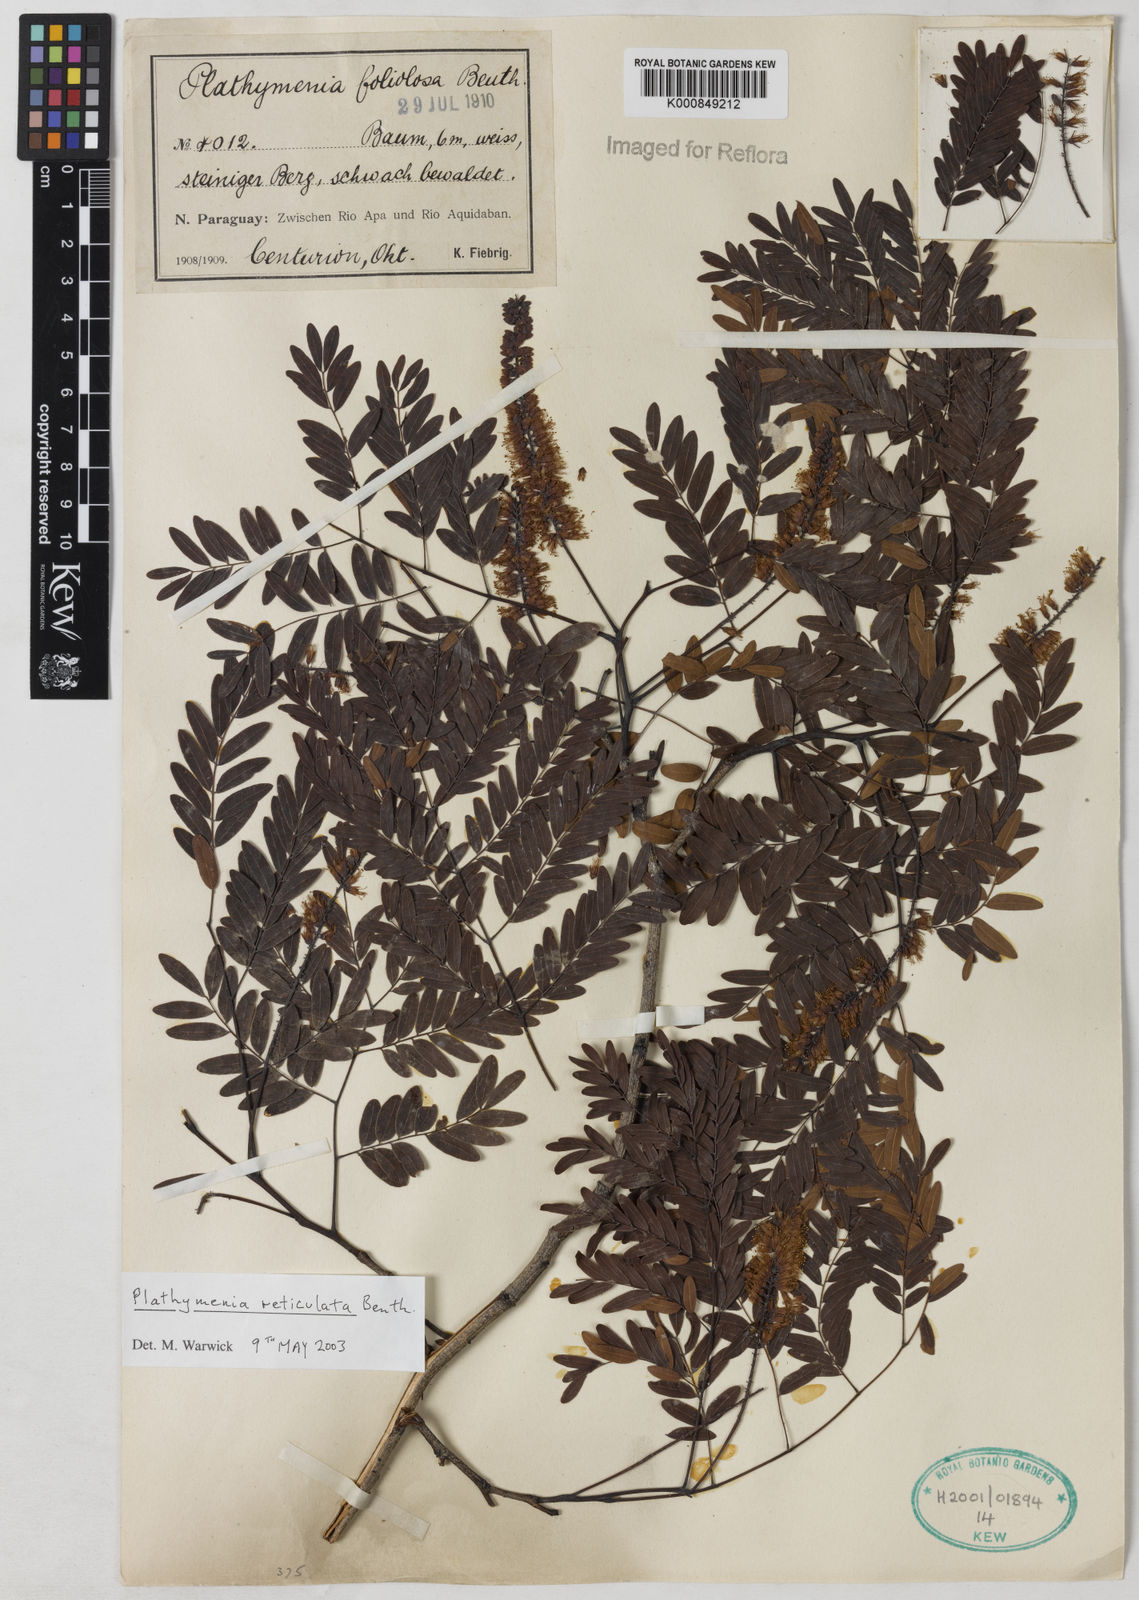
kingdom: Plantae
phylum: Tracheophyta
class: Magnoliopsida
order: Fabales
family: Fabaceae
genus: Plathymenia
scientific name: Plathymenia reticulata
